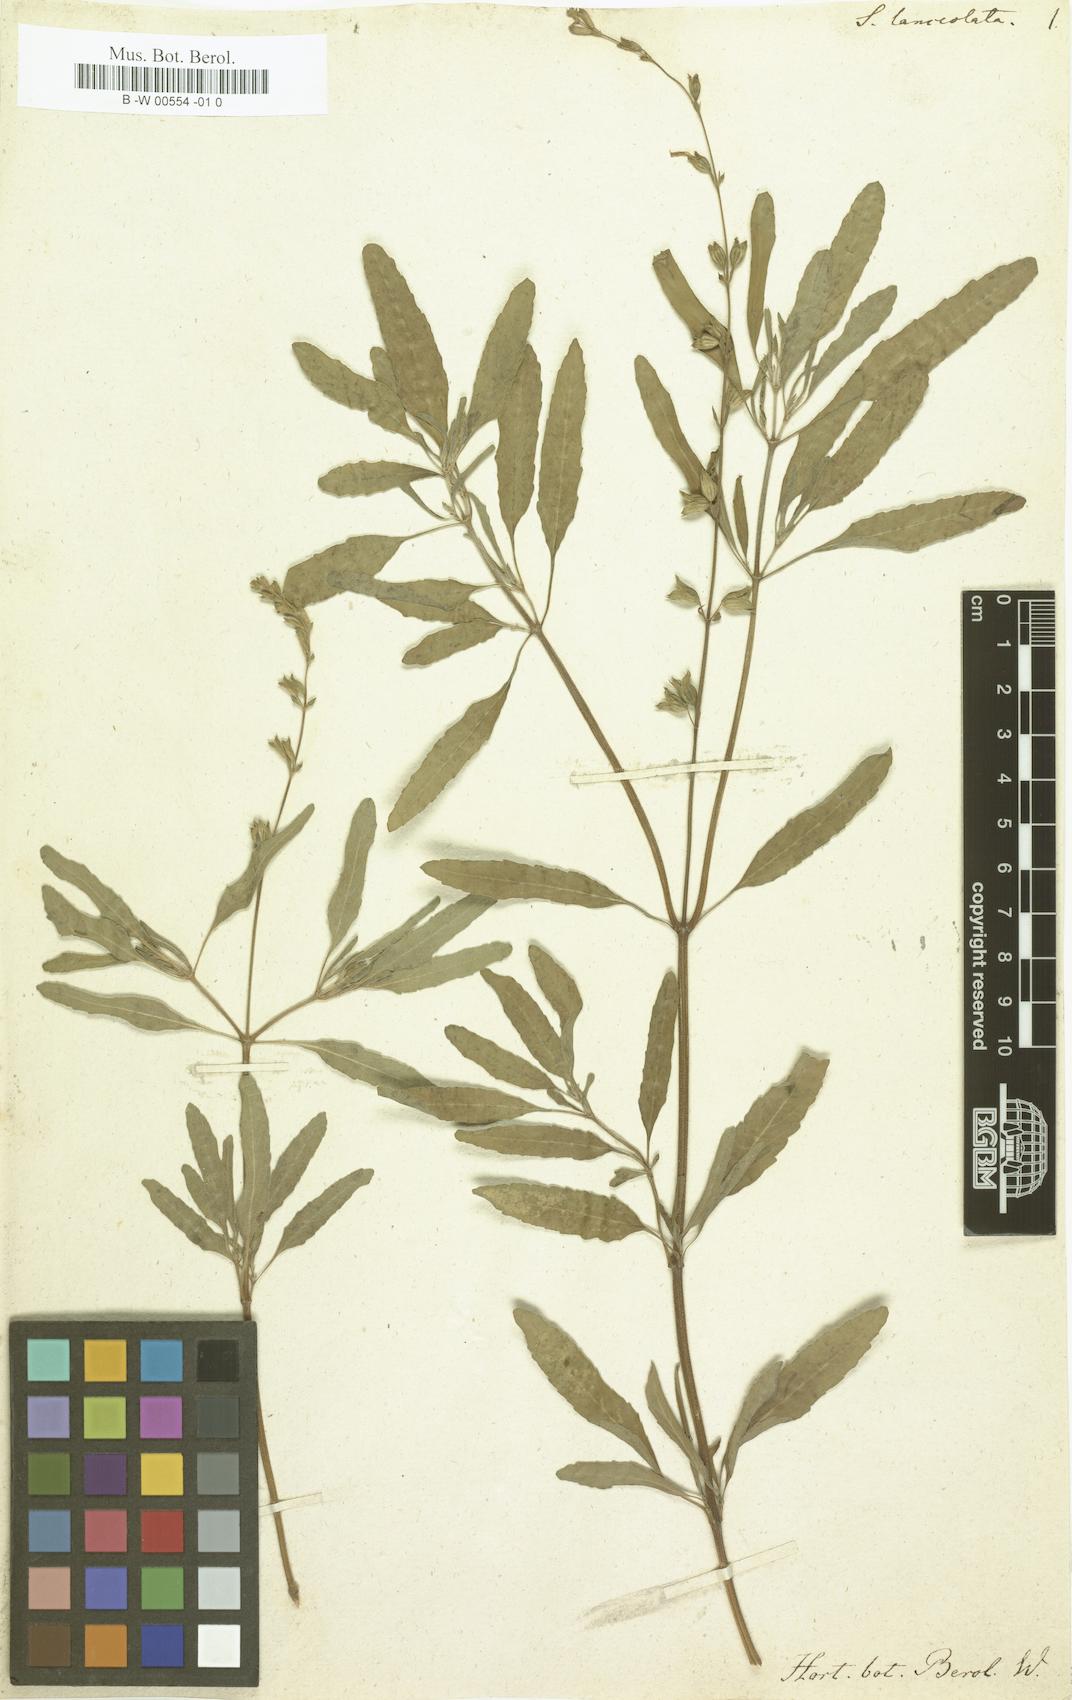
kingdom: Plantae
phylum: Tracheophyta
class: Magnoliopsida
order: Lamiales
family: Lamiaceae
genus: Salvia
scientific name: Salvia lanceolata
